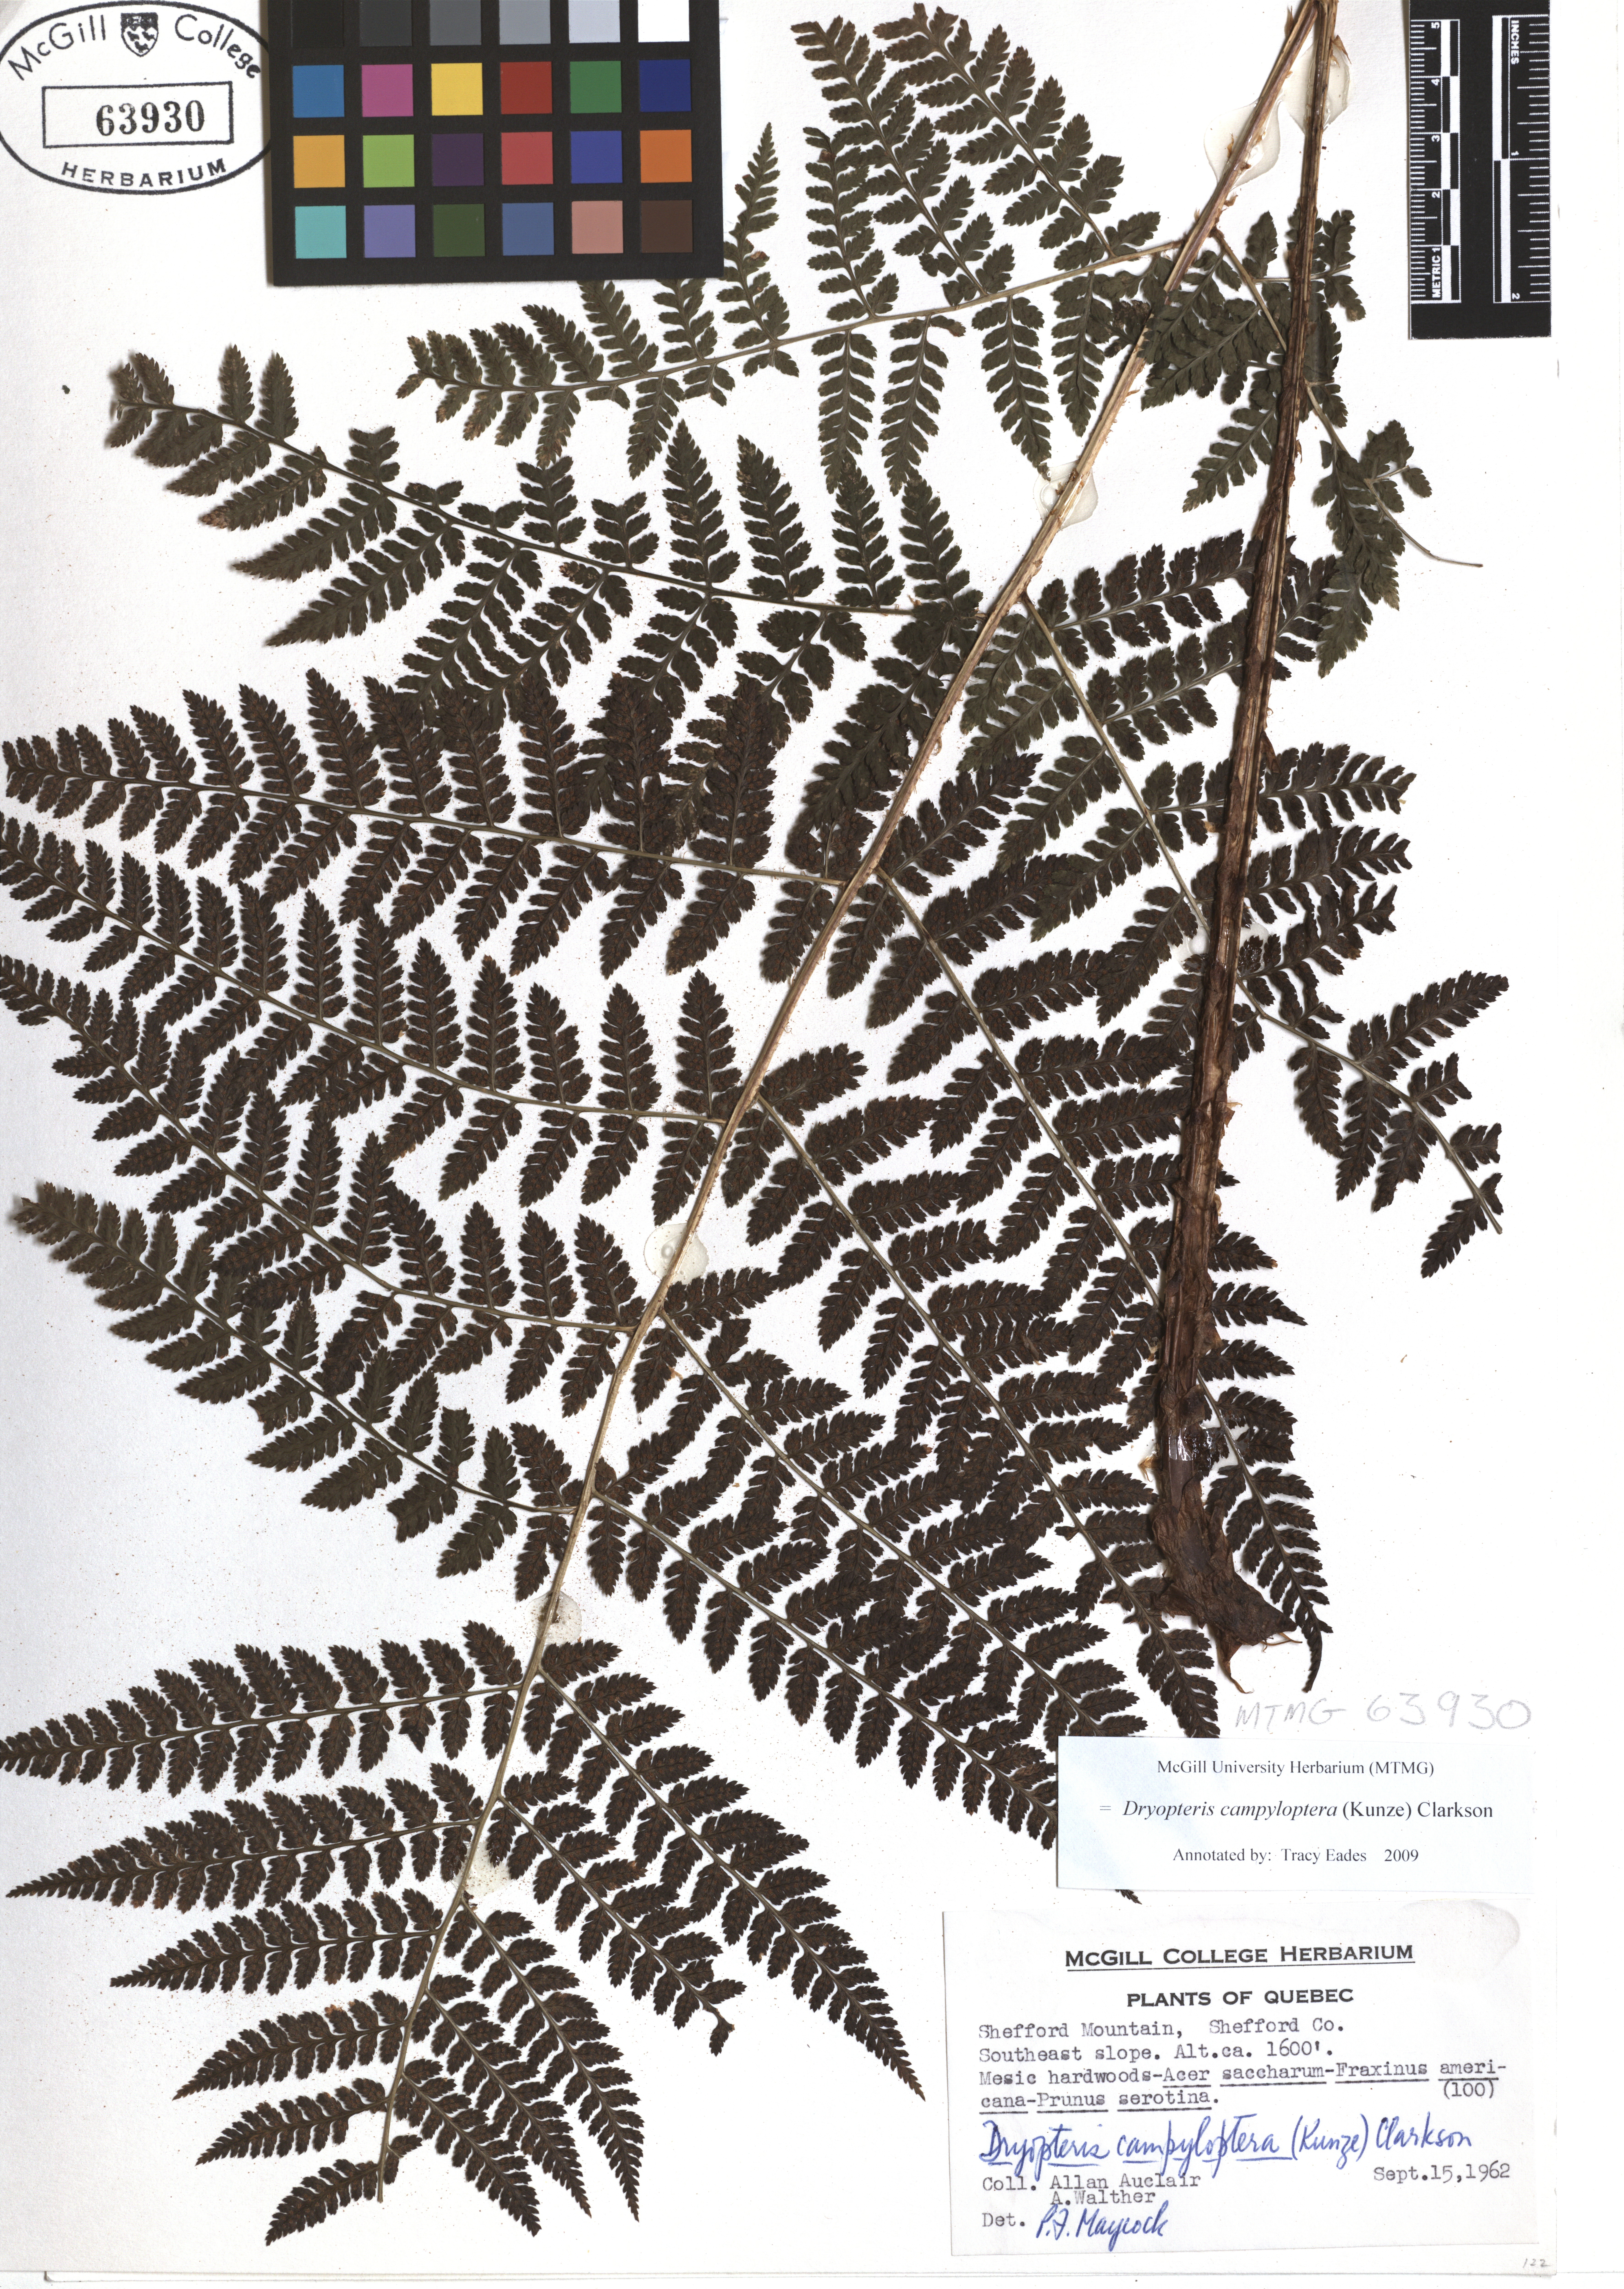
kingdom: Plantae
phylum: Tracheophyta
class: Polypodiopsida
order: Polypodiales
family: Dryopteridaceae
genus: Dryopteris
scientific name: Dryopteris campyloptera
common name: Mountain wood fern
